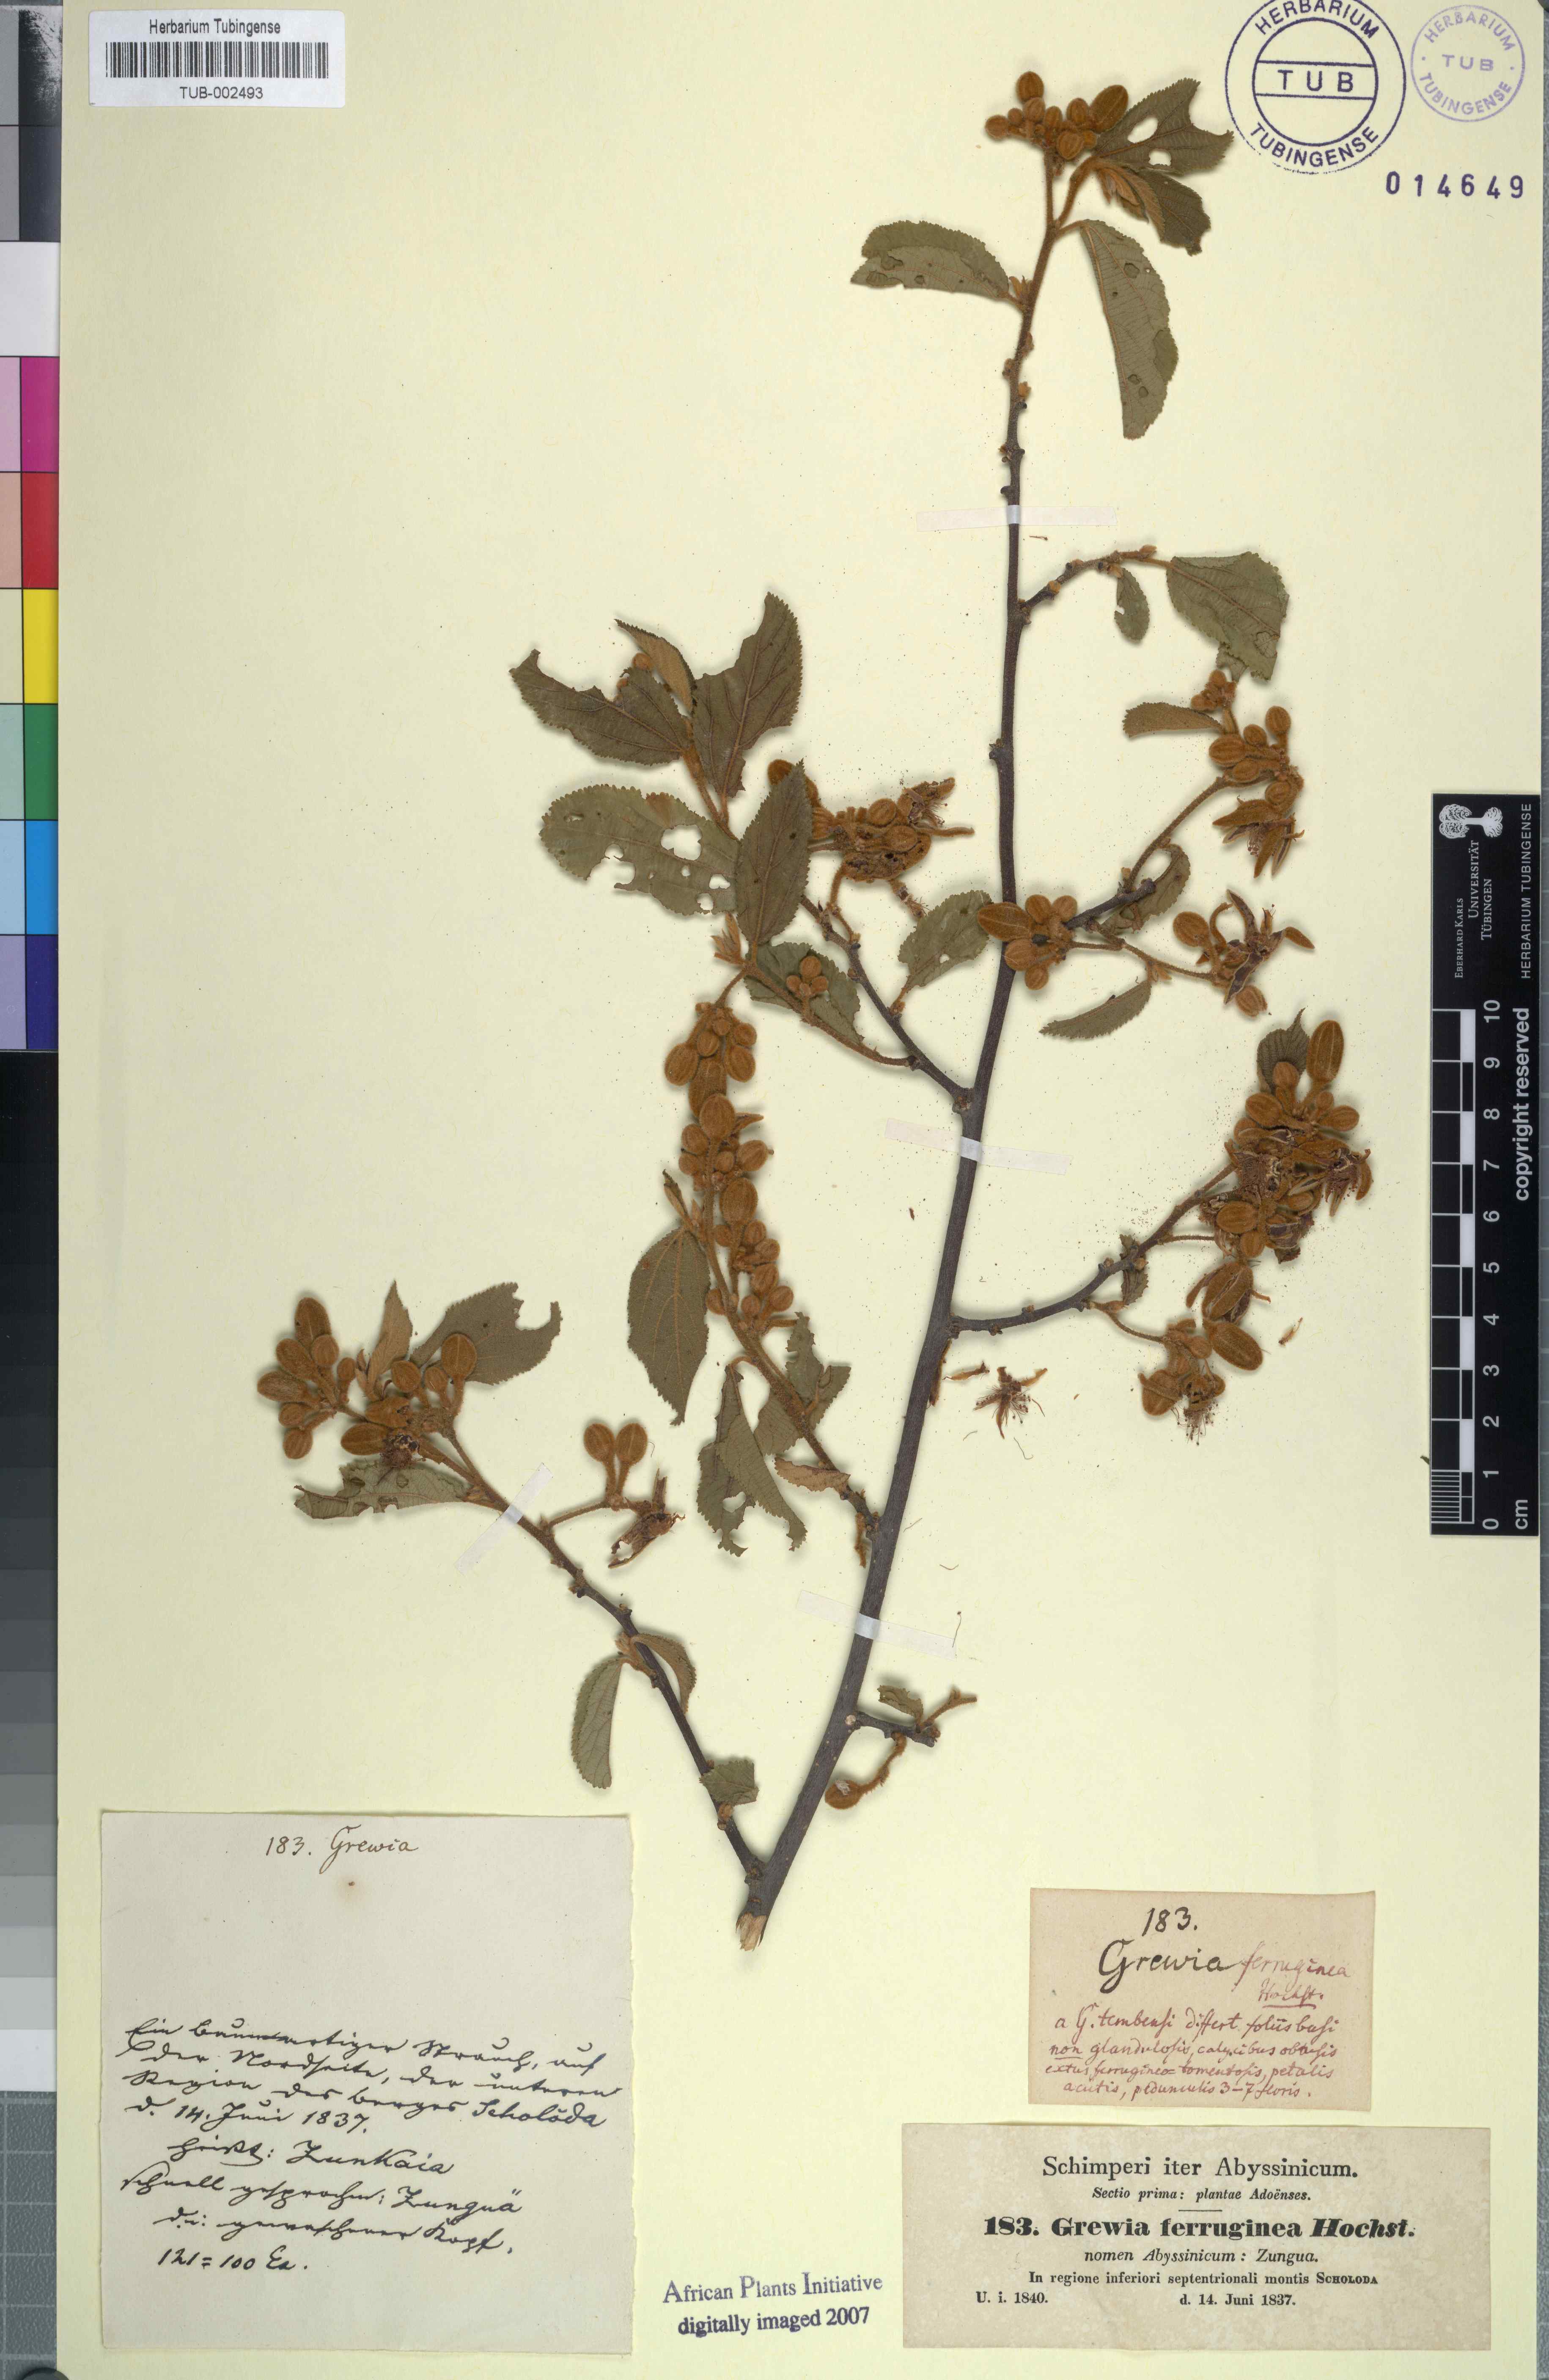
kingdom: Plantae
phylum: Tracheophyta
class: Magnoliopsida
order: Malvales
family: Malvaceae
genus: Grewia
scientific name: Grewia scabrida
